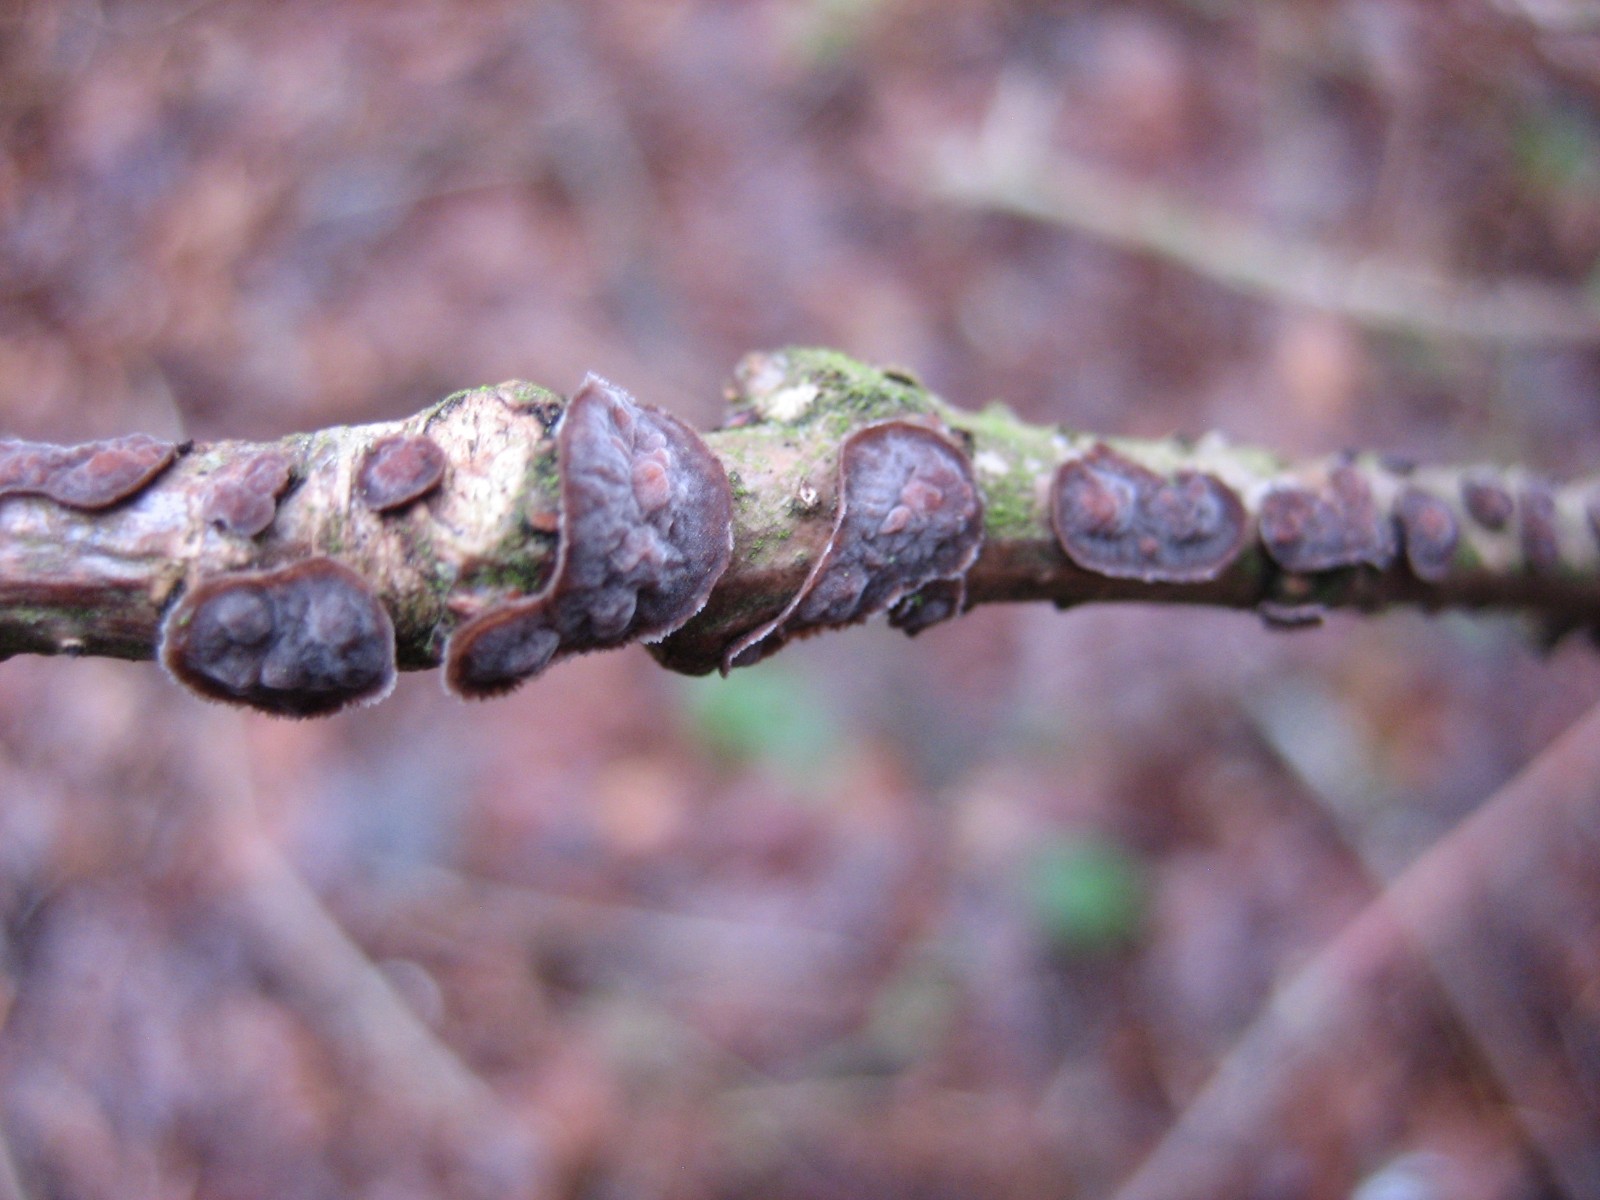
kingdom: Fungi
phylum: Basidiomycota
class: Agaricomycetes
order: Russulales
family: Peniophoraceae
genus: Peniophora
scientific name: Peniophora quercina
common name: ege-voksskind
